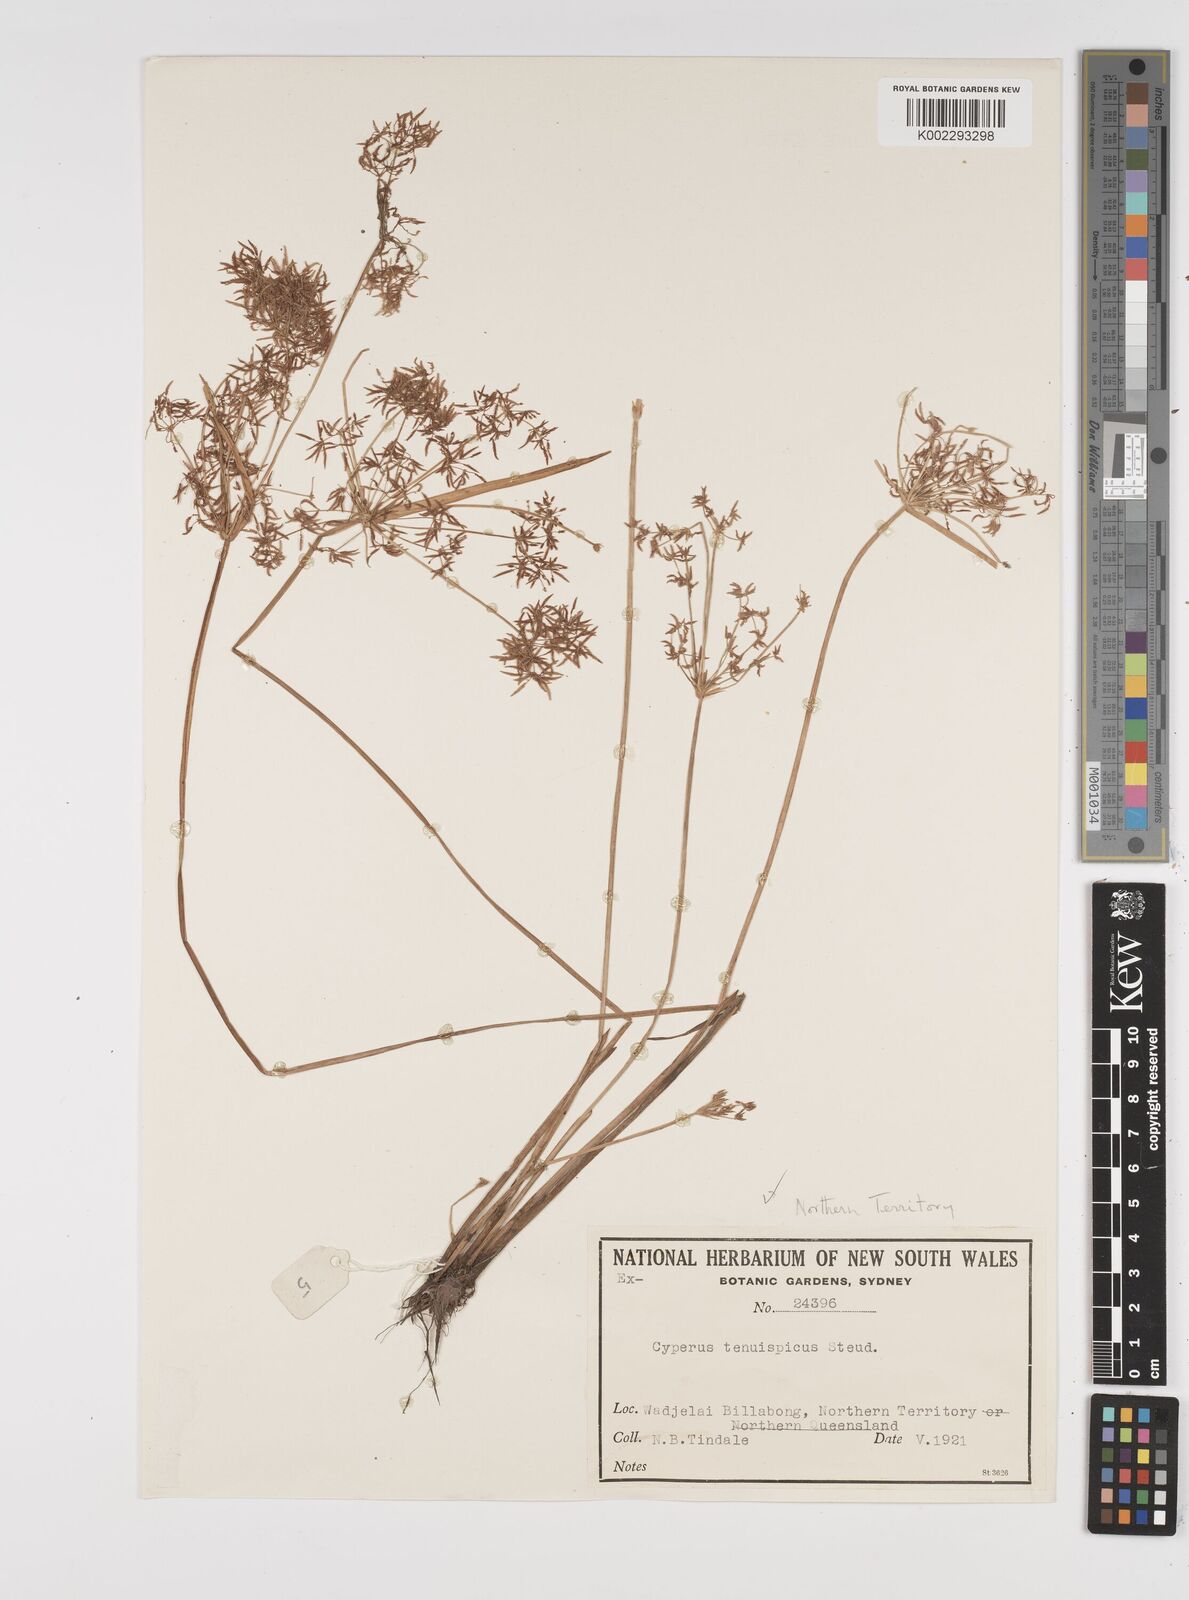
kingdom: Plantae
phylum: Tracheophyta
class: Liliopsida
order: Poales
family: Cyperaceae
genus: Cyperus
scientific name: Cyperus tenuispica
